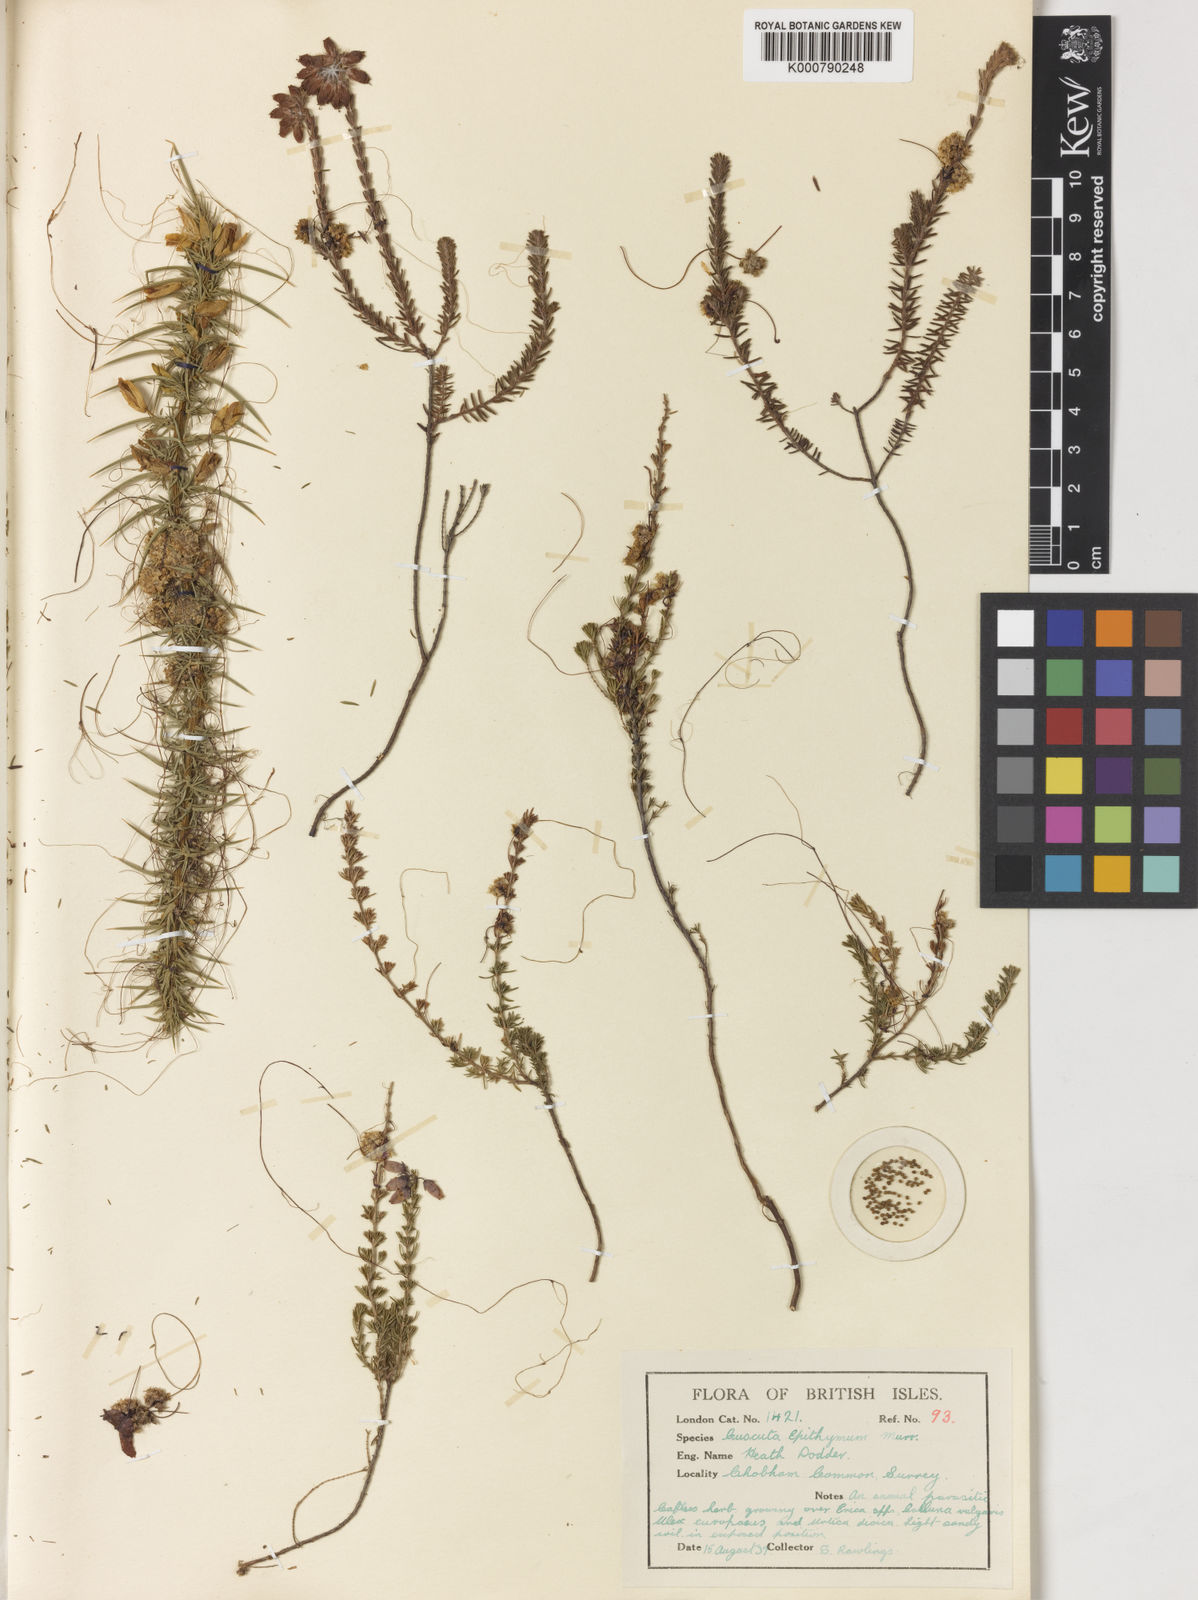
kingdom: Plantae
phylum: Tracheophyta
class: Magnoliopsida
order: Solanales
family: Convolvulaceae
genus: Cuscuta
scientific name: Cuscuta epithymum
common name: Clover dodder
